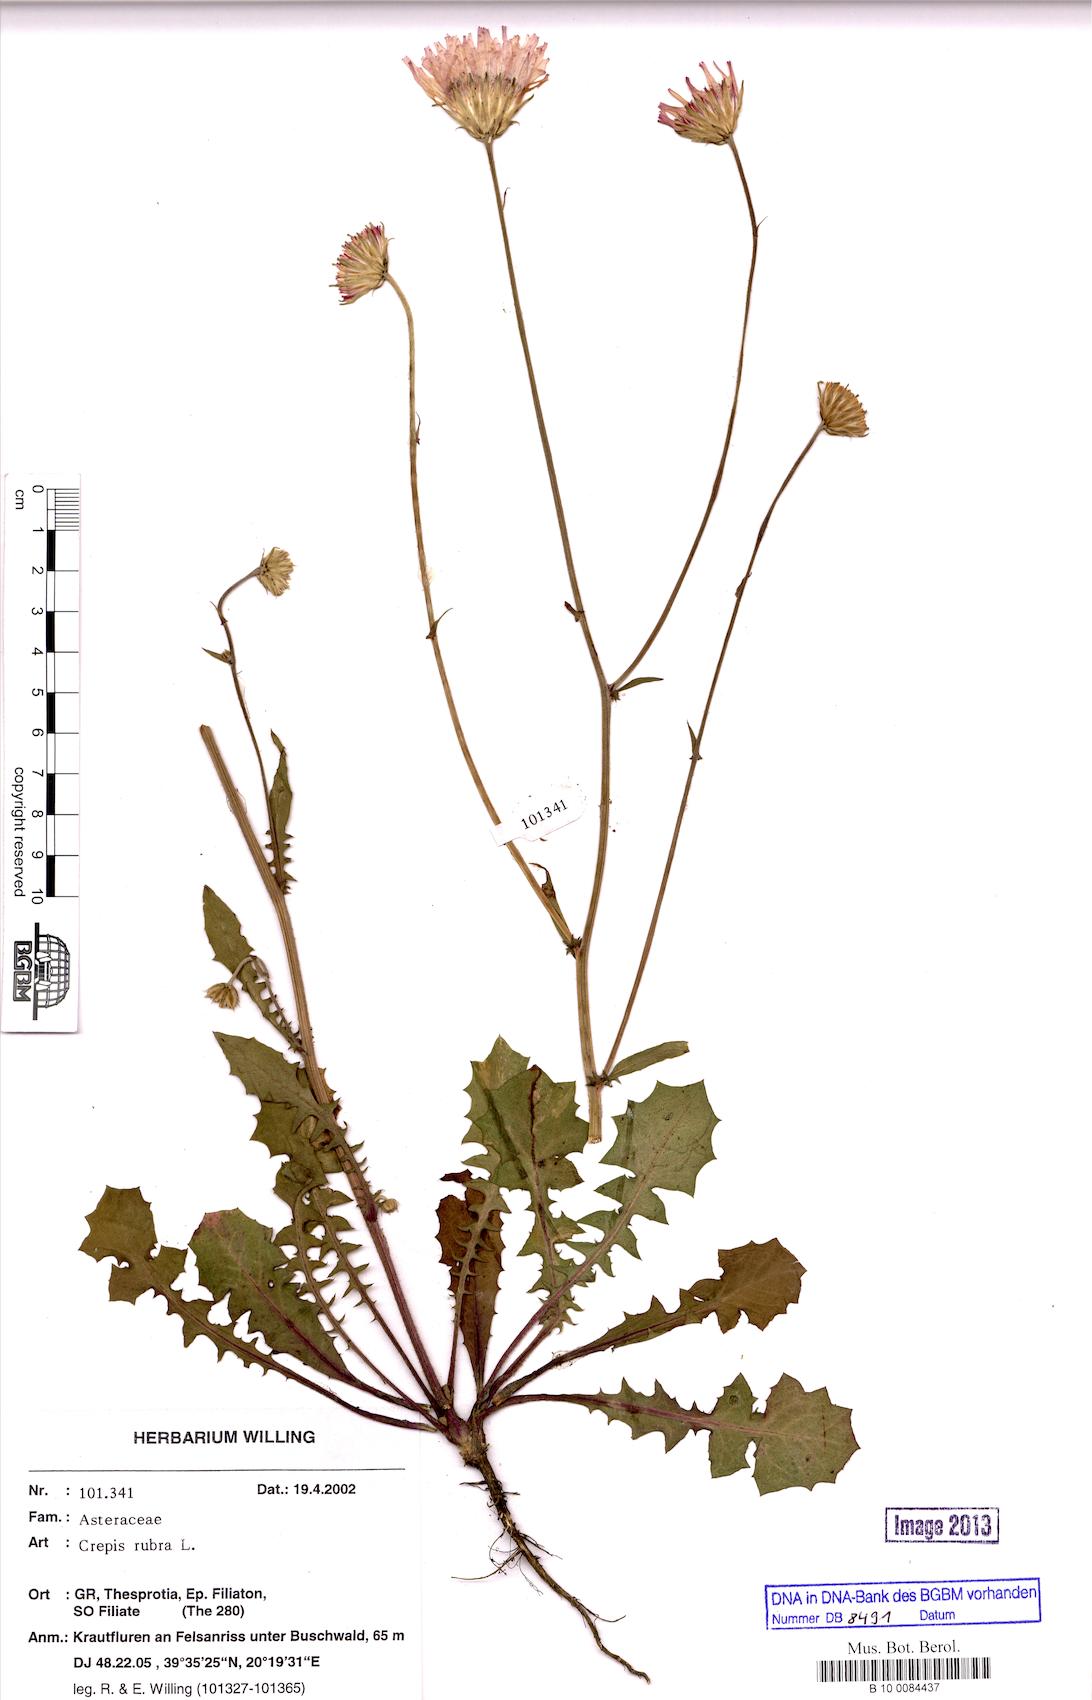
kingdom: Plantae
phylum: Tracheophyta
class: Magnoliopsida
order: Asterales
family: Asteraceae
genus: Crepis
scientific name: Crepis rubra
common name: Pink hawk's-beard
